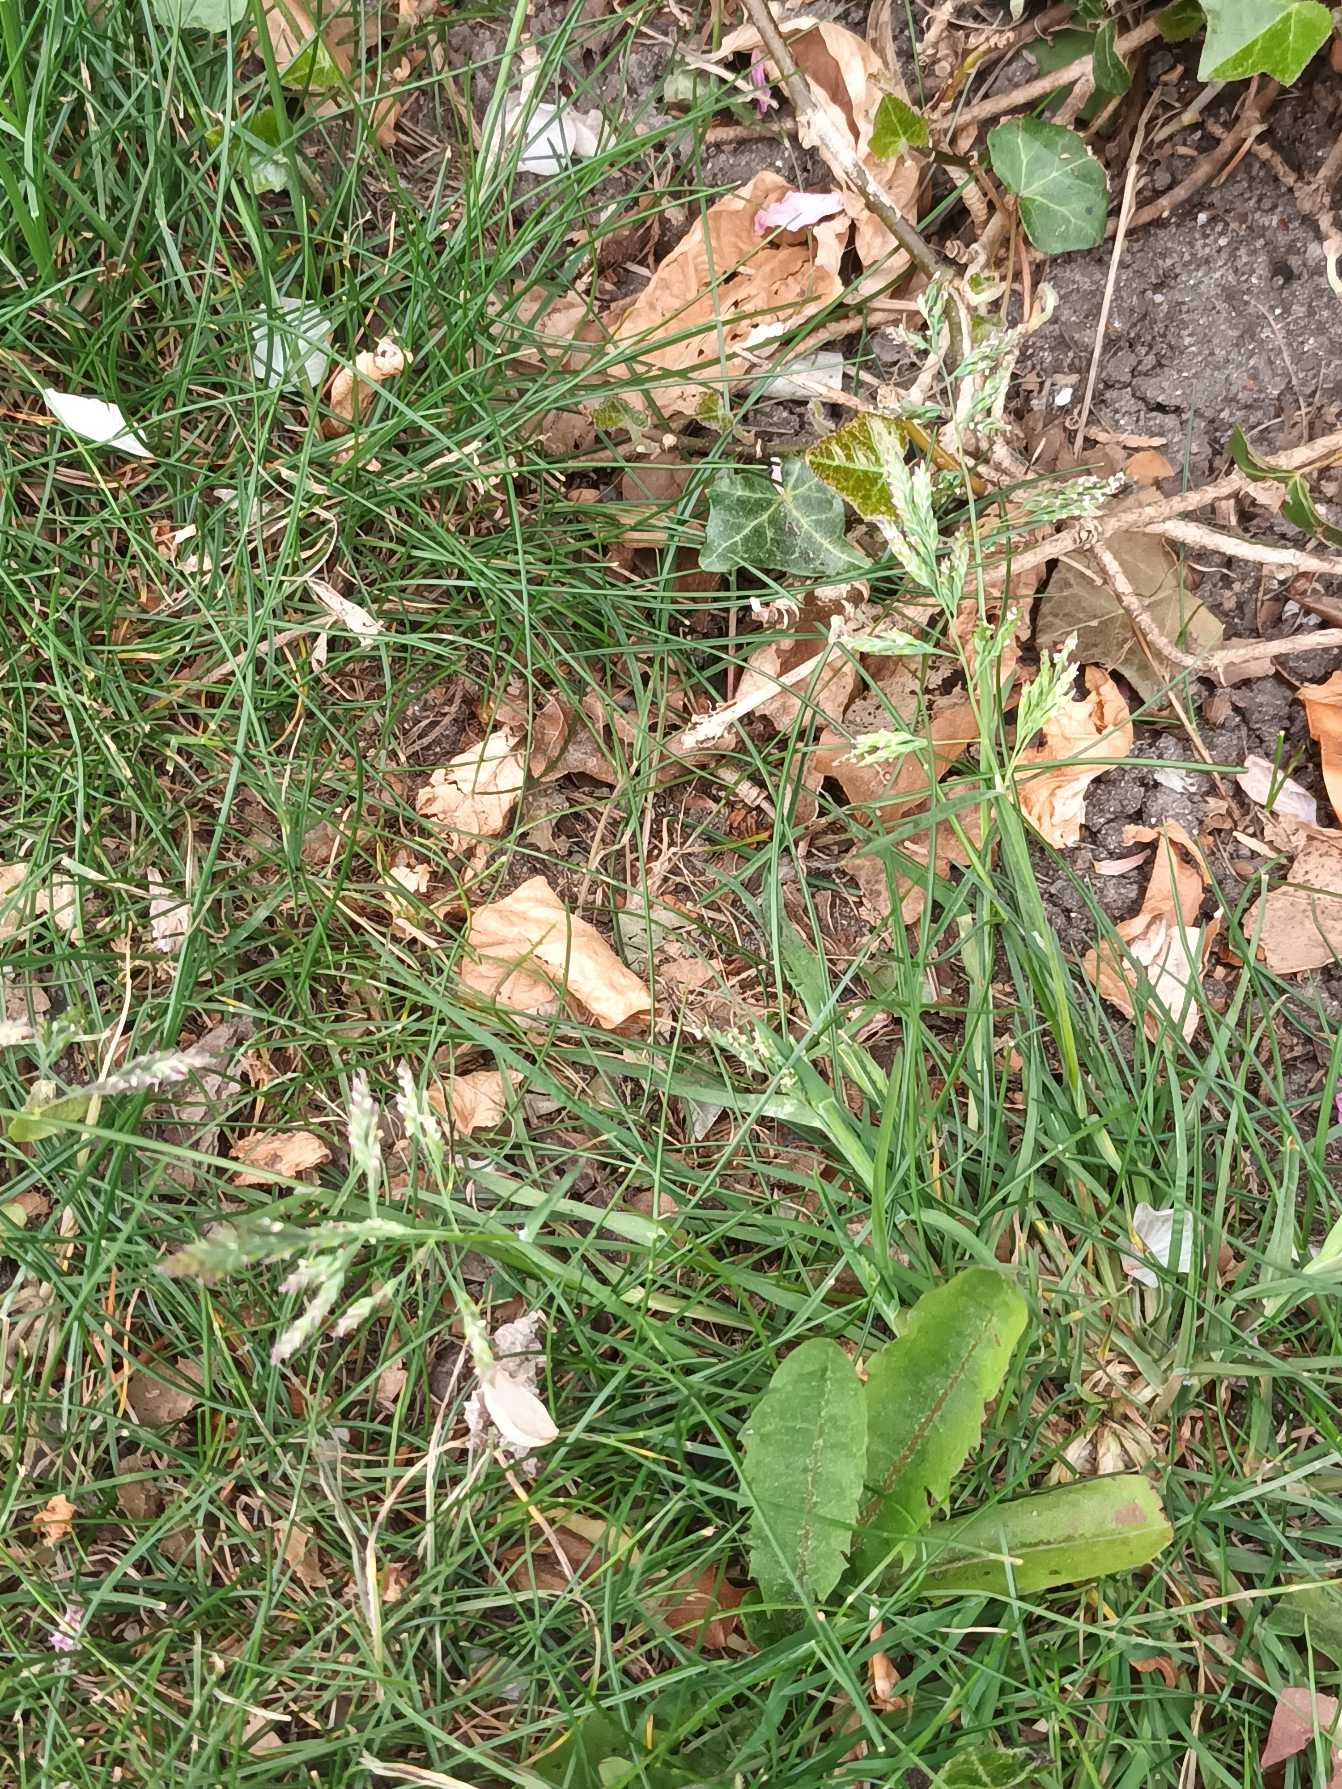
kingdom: Plantae
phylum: Tracheophyta
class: Liliopsida
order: Poales
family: Poaceae
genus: Poa
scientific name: Poa annua
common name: Enårig rapgræs
